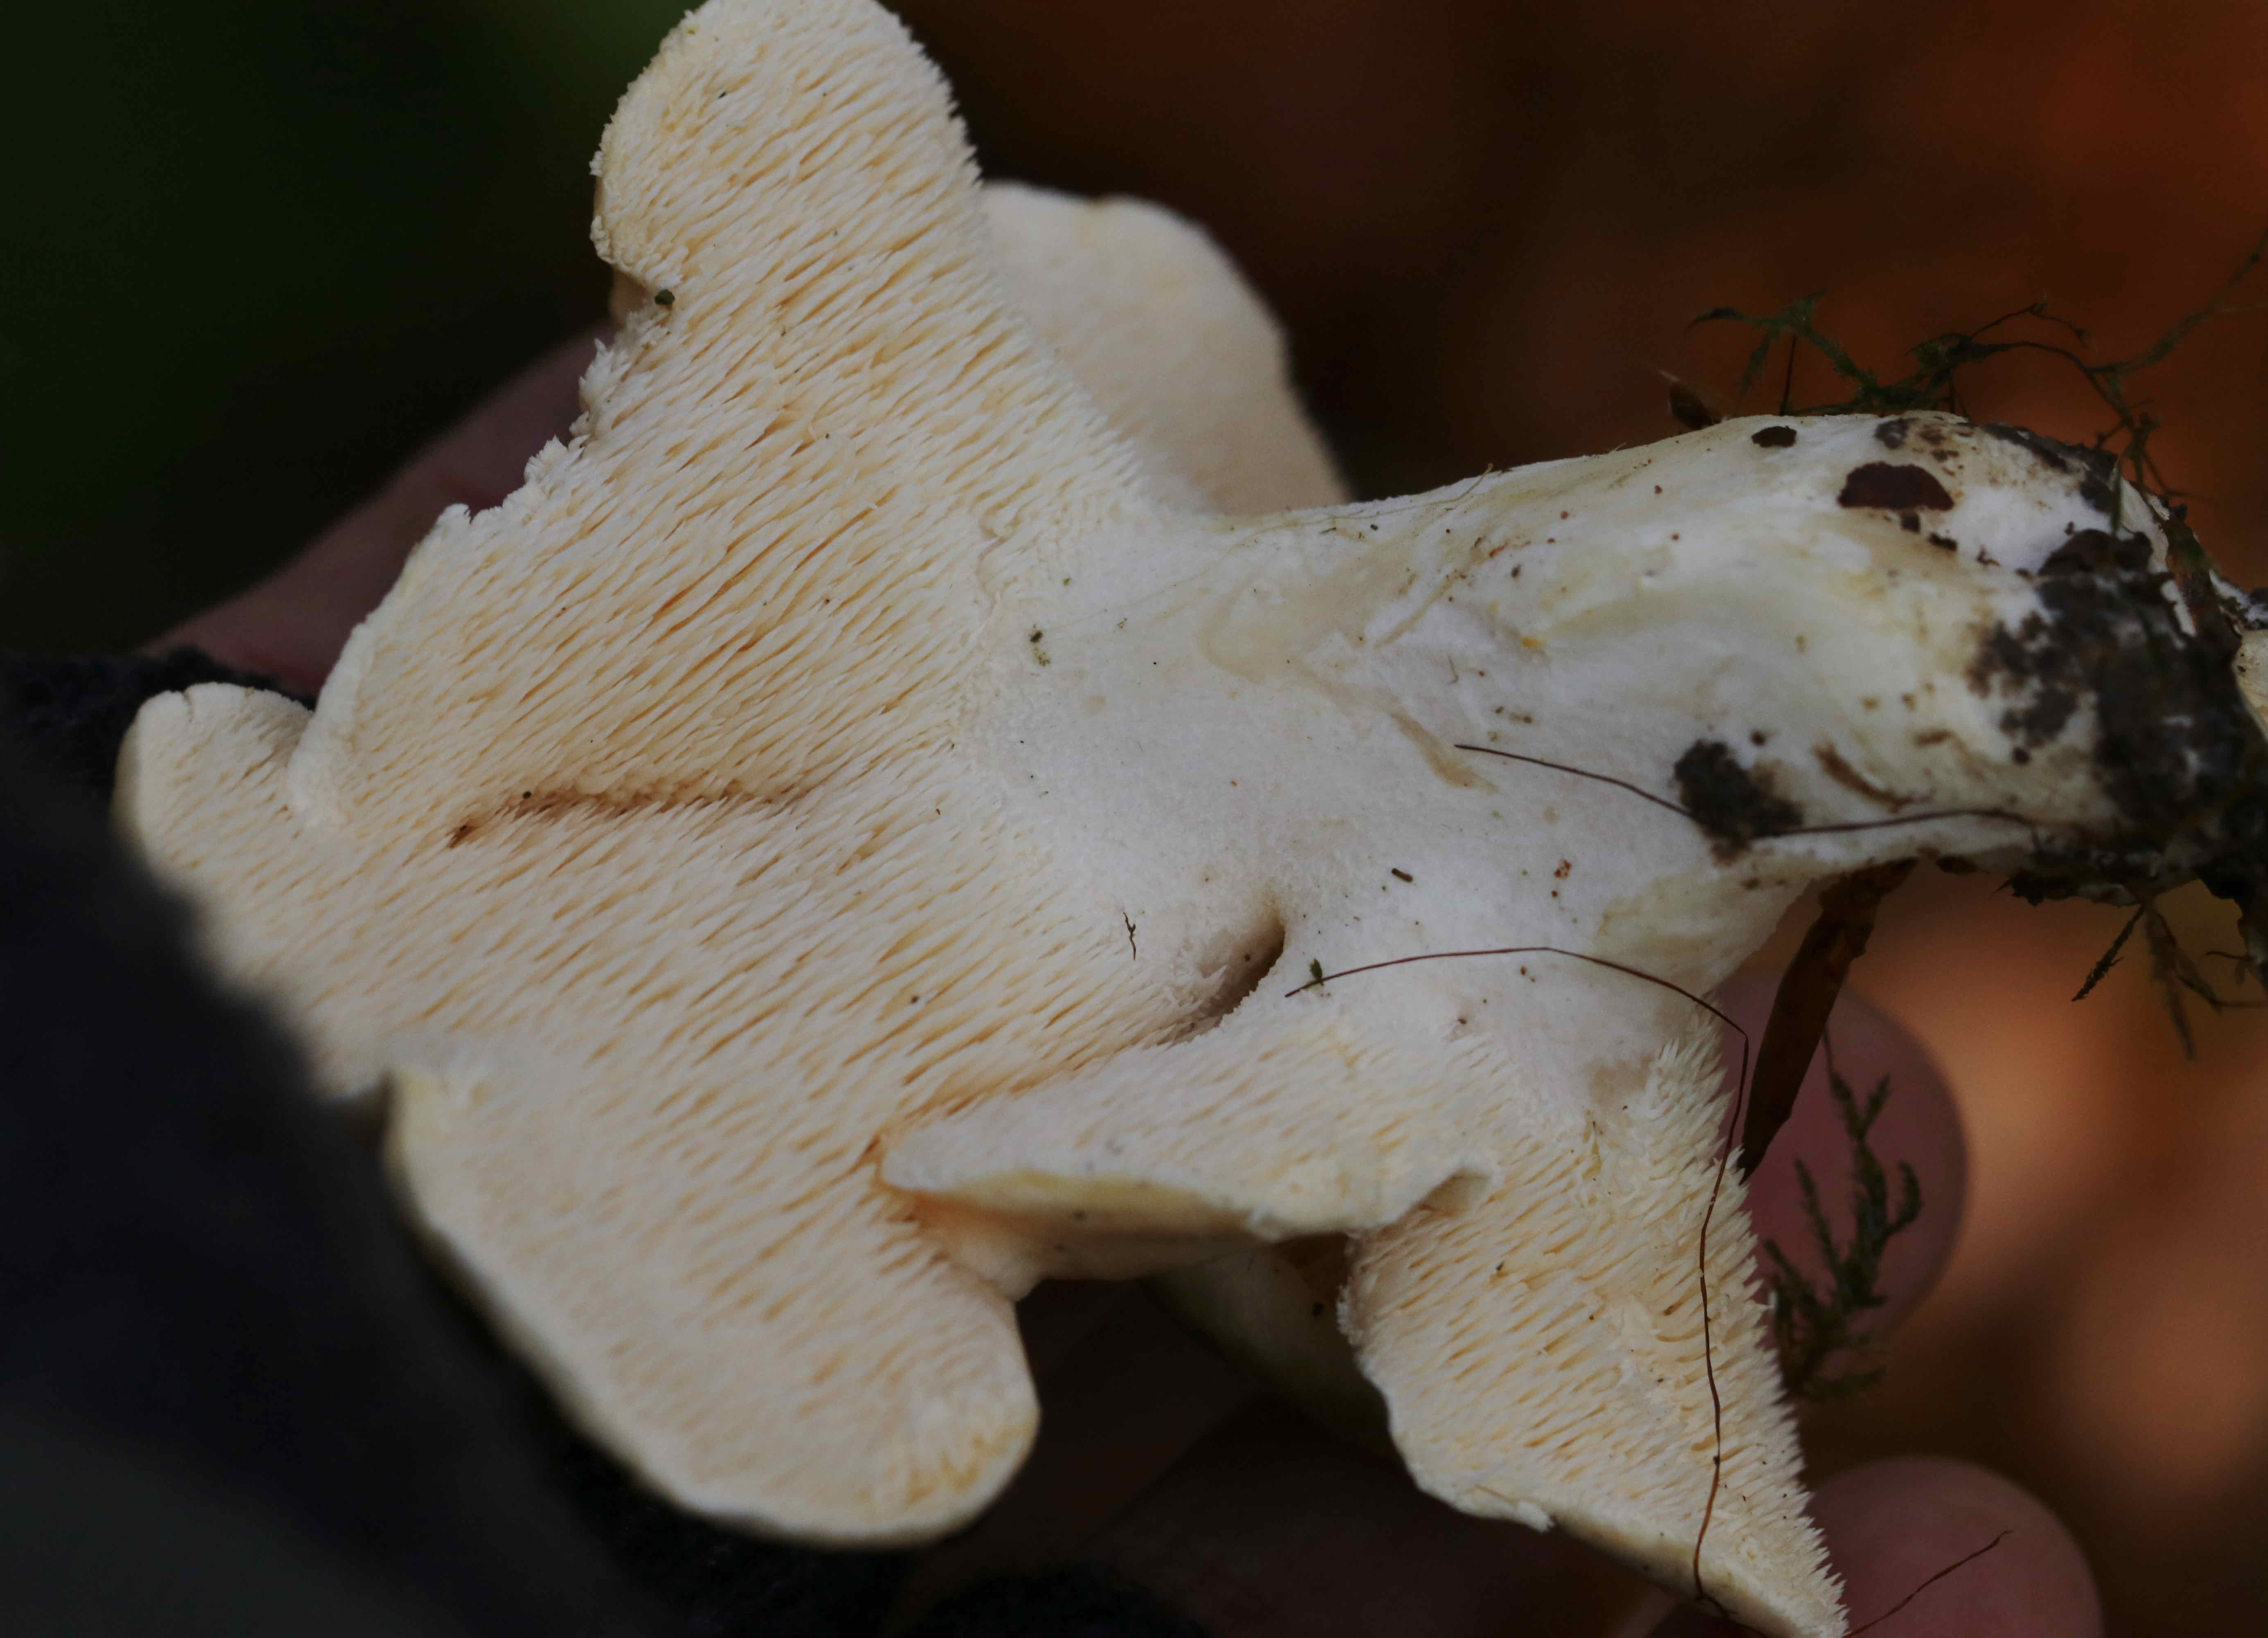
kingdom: Fungi
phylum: Basidiomycota
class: Agaricomycetes
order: Cantharellales
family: Hydnaceae
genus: Hydnum
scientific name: Hydnum repandum
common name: almindelig pigsvamp
